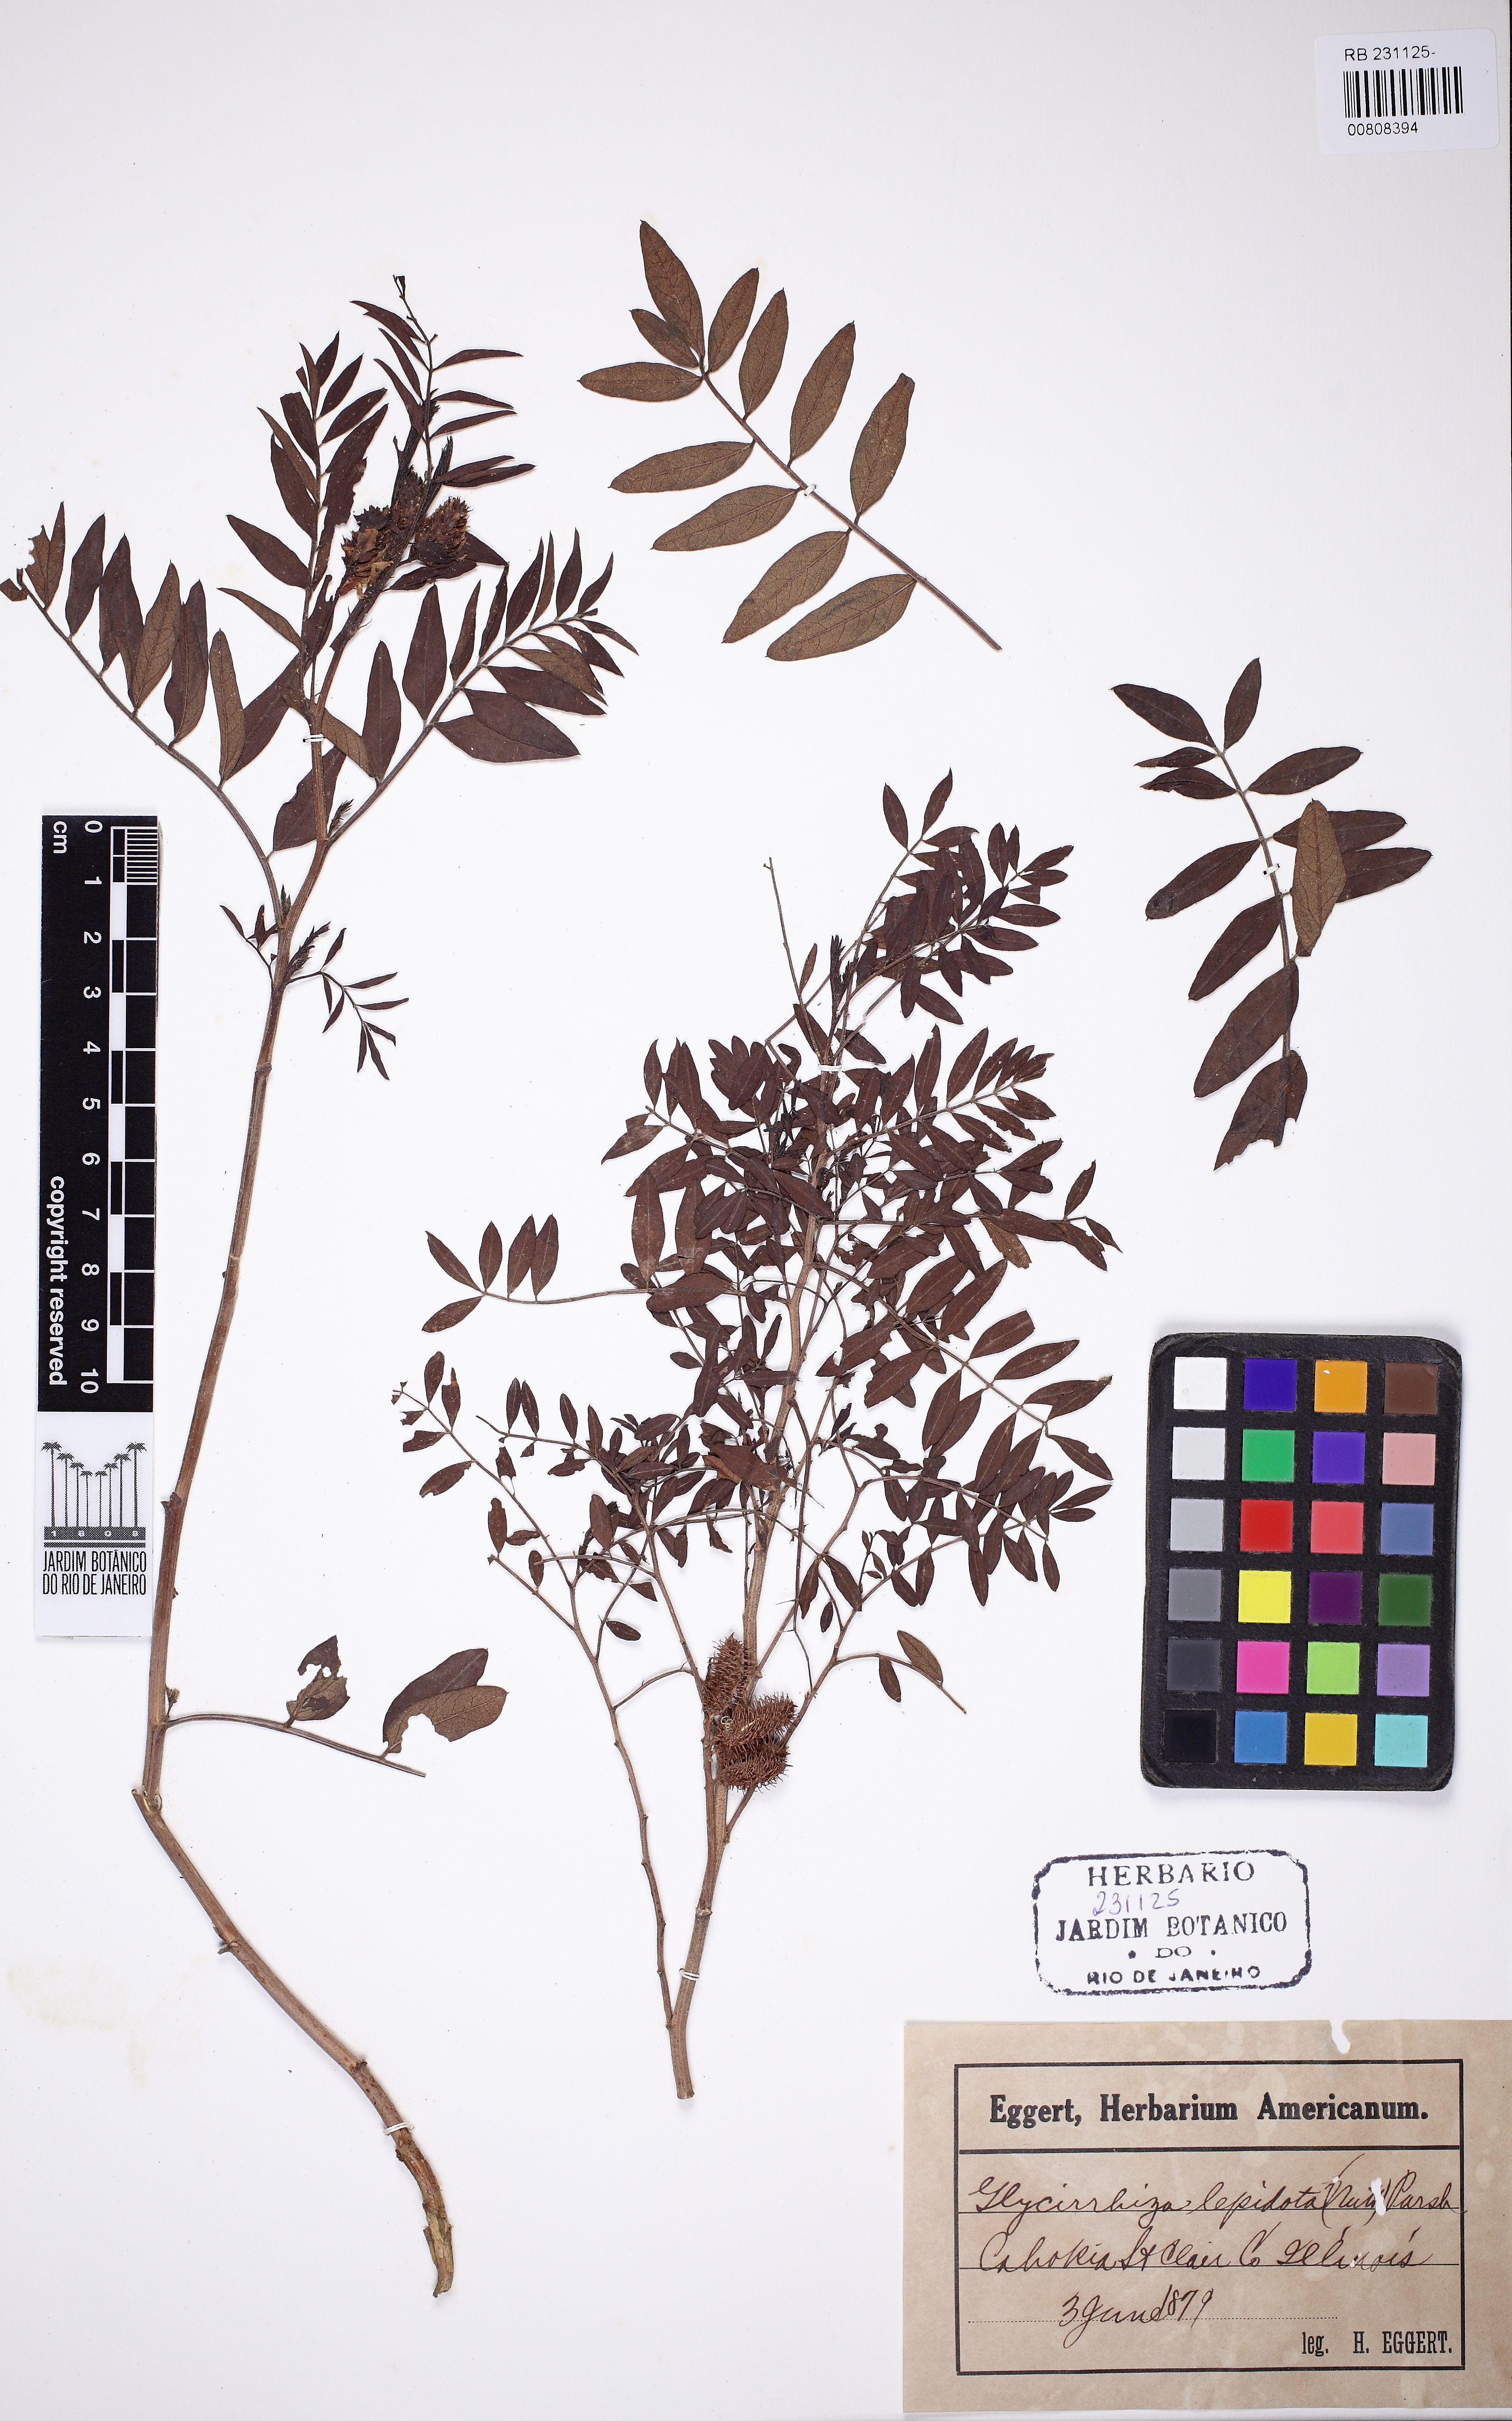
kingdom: Plantae
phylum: Tracheophyta
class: Magnoliopsida
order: Fabales
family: Fabaceae
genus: Glycyrrhiza
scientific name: Glycyrrhiza lepidota
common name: American liquorice
